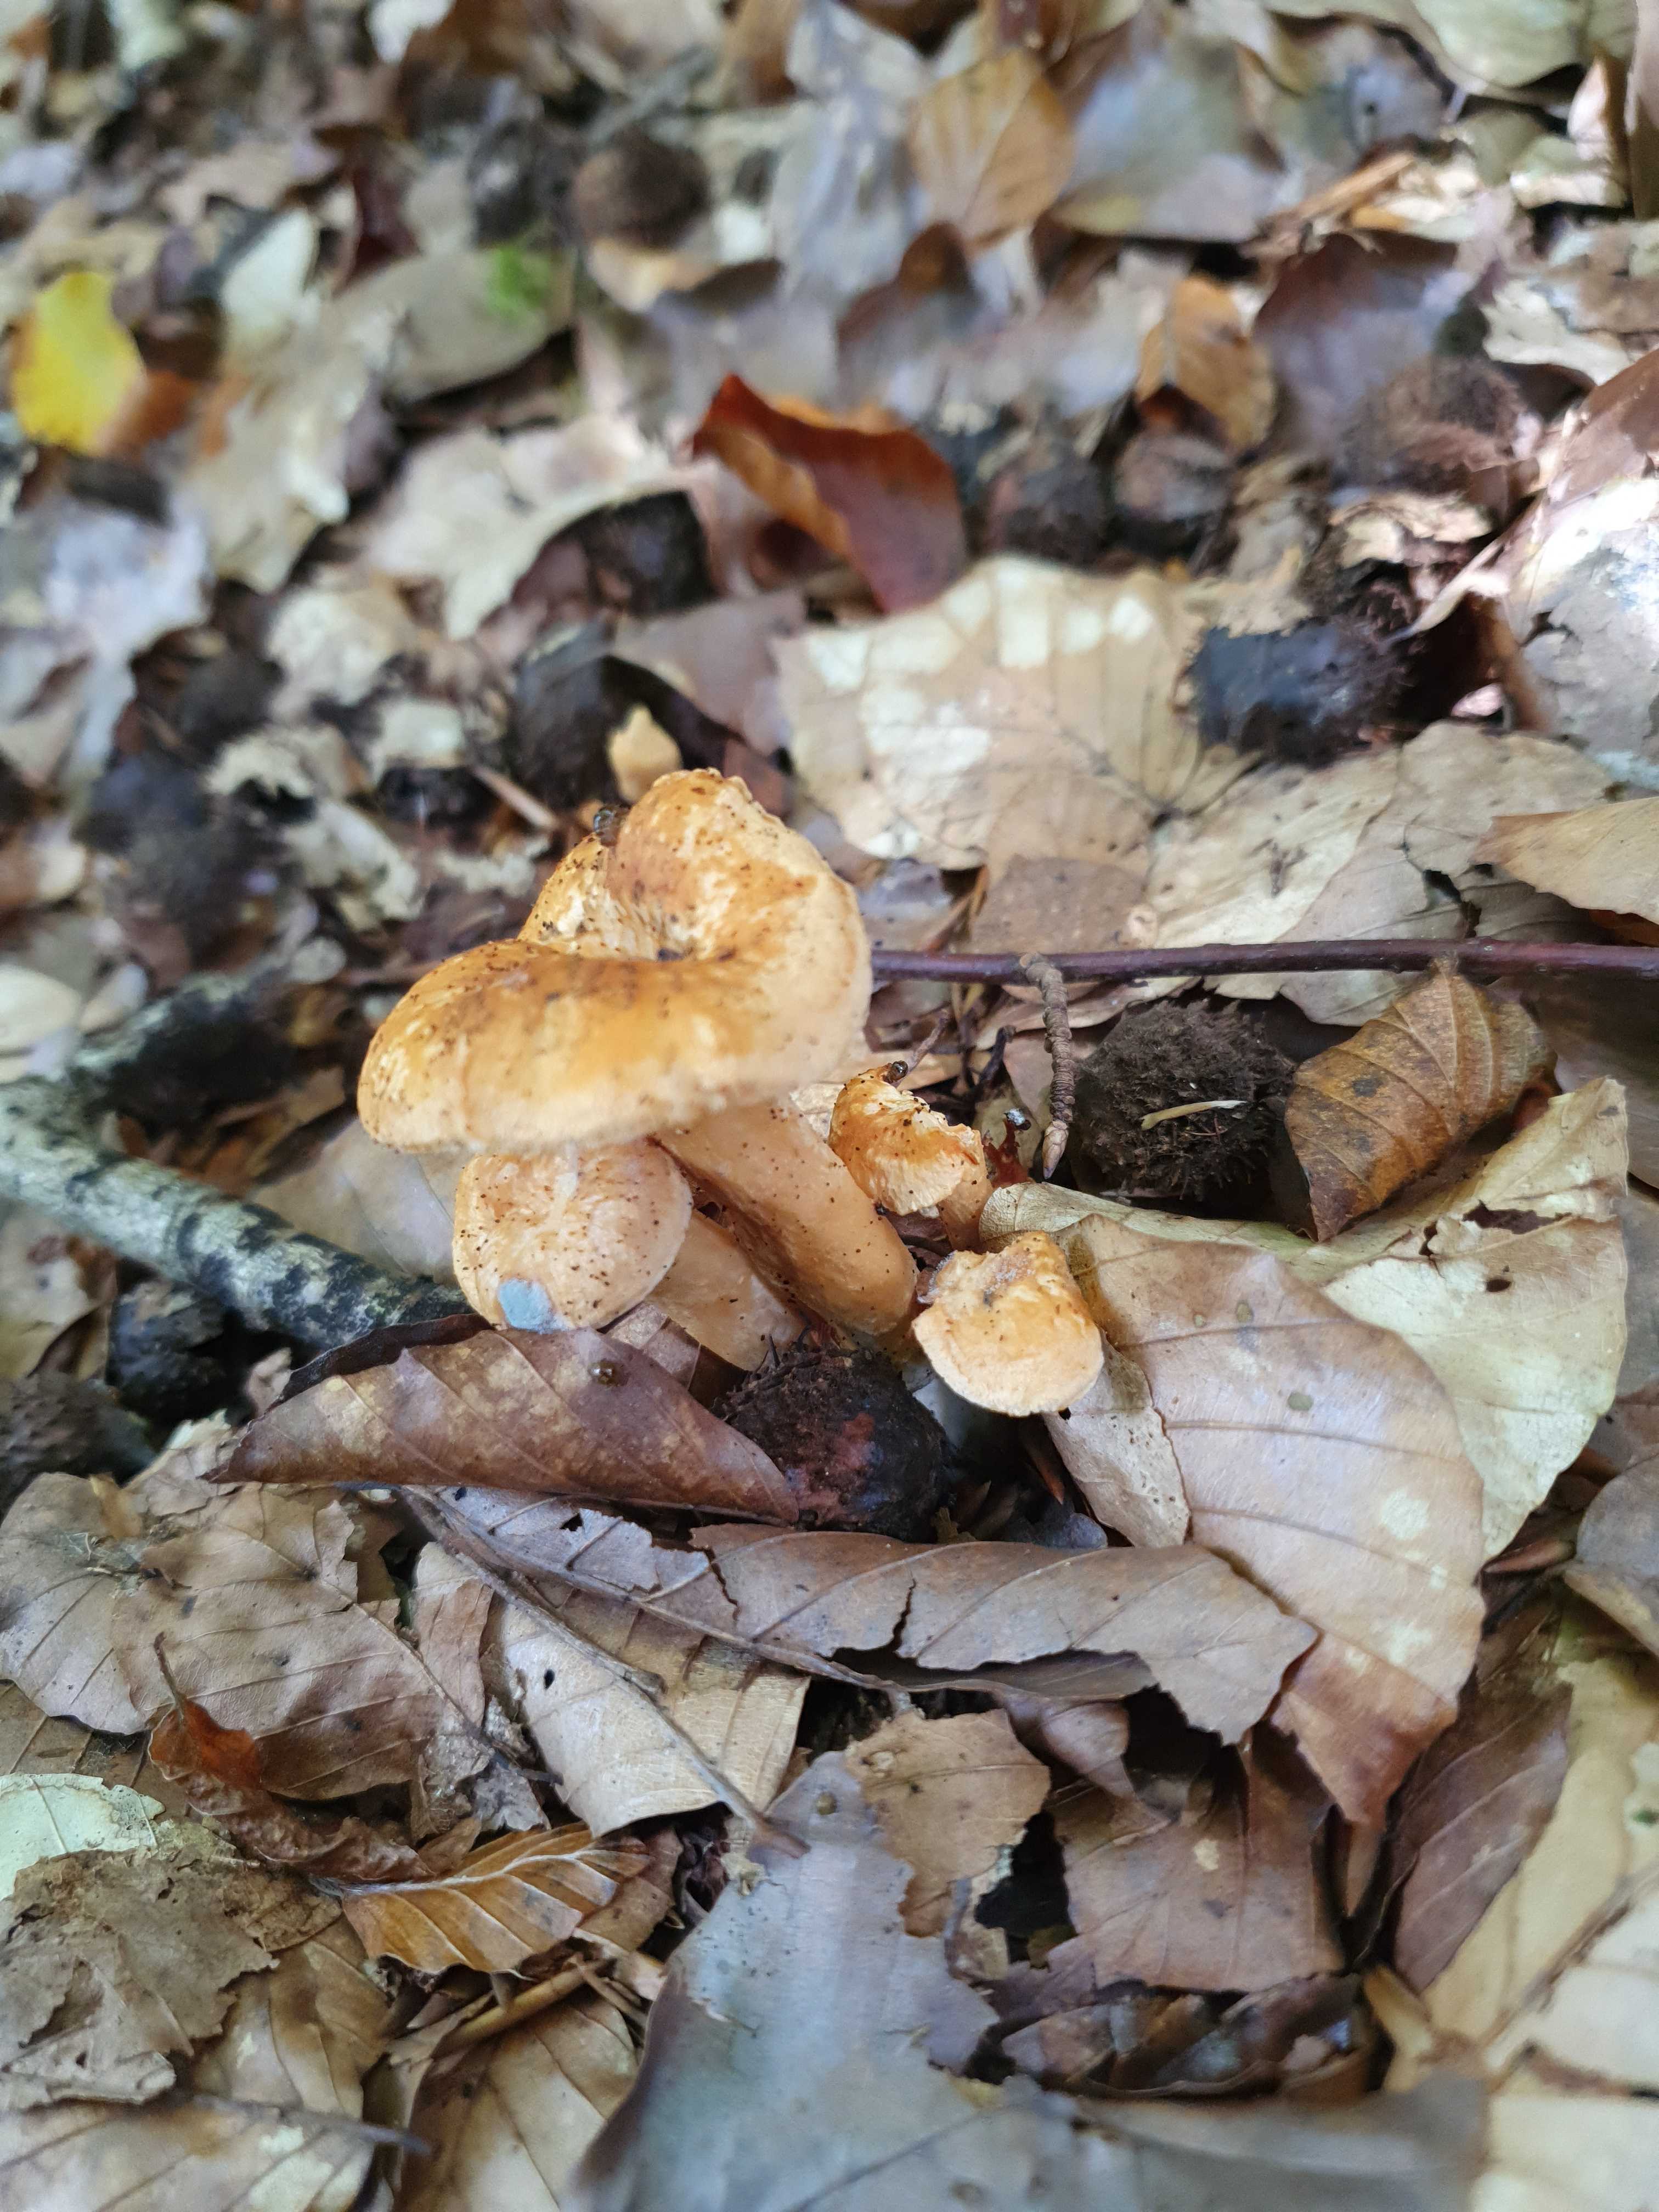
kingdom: Fungi
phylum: Basidiomycota
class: Agaricomycetes
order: Cantharellales
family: Hydnaceae
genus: Hydnum
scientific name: Hydnum umbilicatum
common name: navle-pigsvamp
